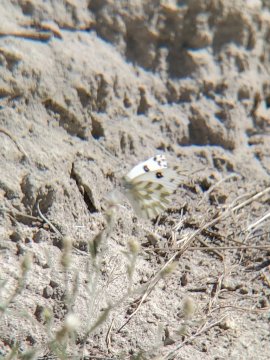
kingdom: Animalia
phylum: Arthropoda
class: Insecta
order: Lepidoptera
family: Pieridae
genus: Pontia
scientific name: Pontia beckerii
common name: Becker's White
